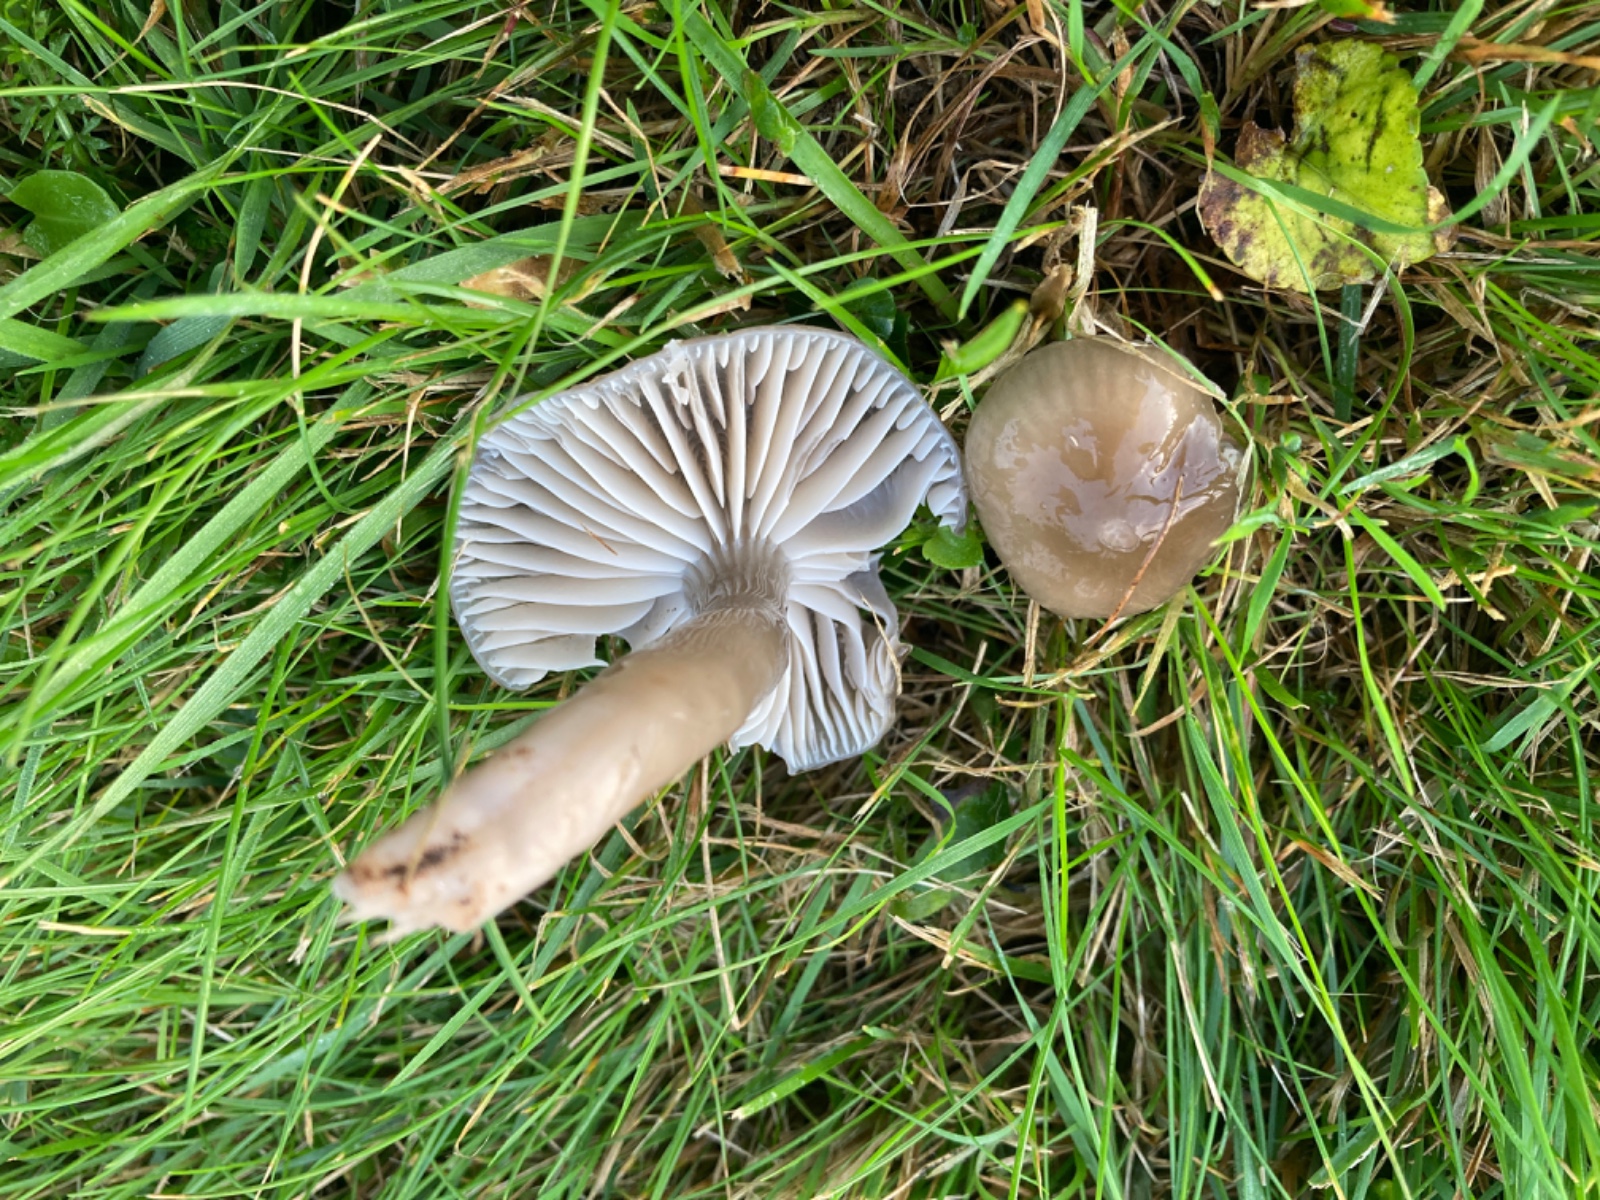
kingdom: Fungi
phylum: Basidiomycota
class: Agaricomycetes
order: Agaricales
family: Hygrophoraceae
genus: Gliophorus
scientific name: Gliophorus irrigatus
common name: slimet vokshat
